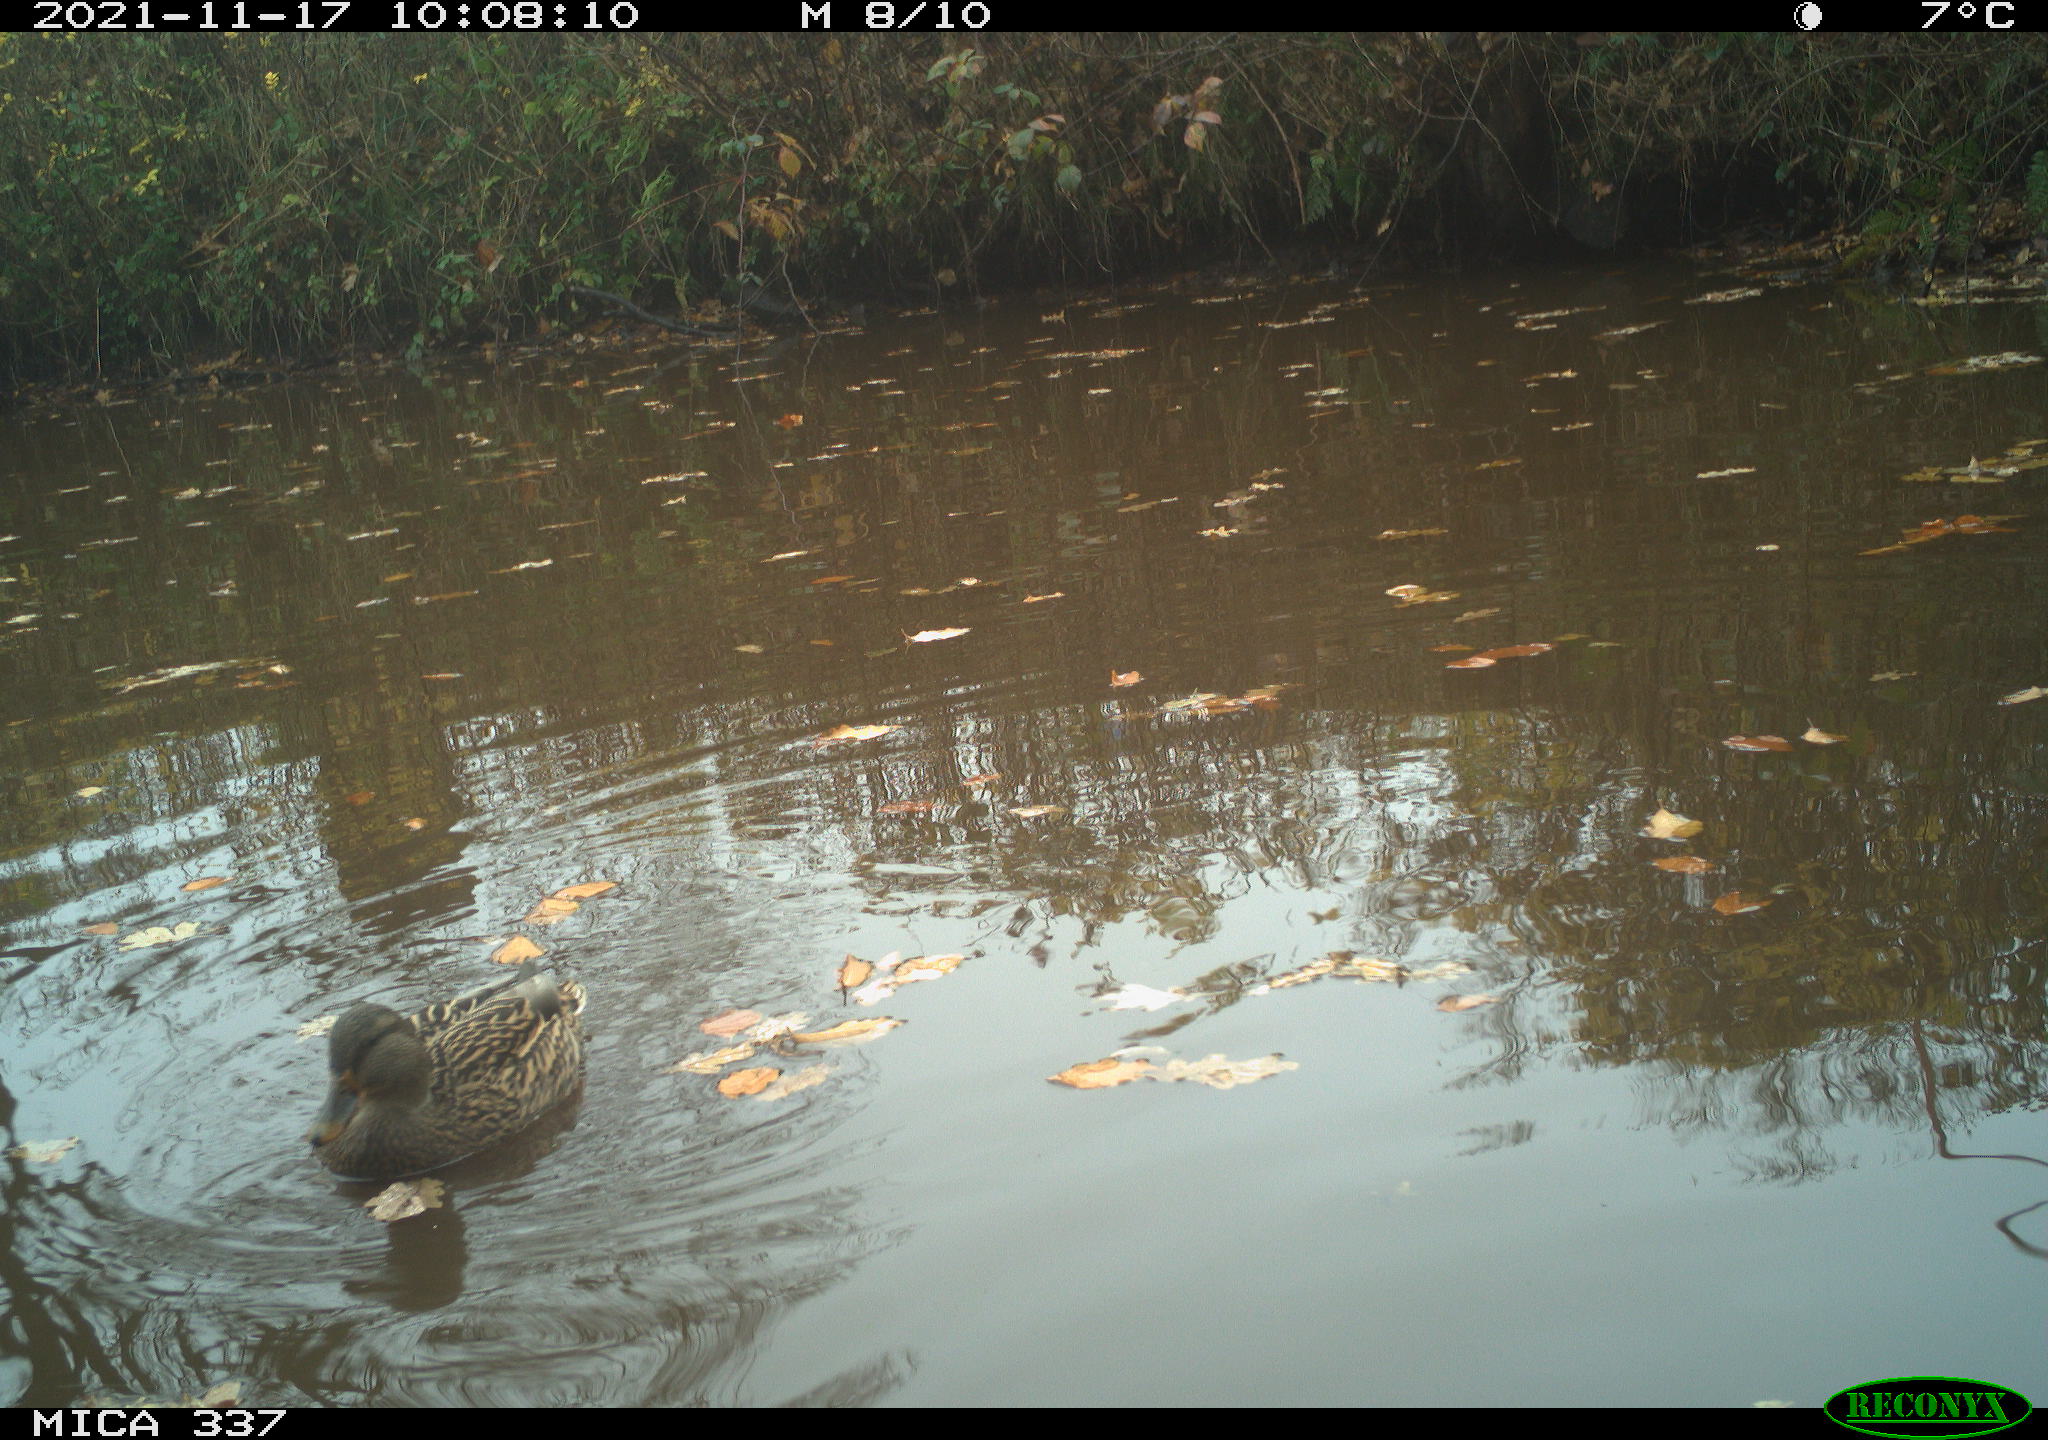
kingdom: Animalia
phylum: Chordata
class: Aves
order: Anseriformes
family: Anatidae
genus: Anas
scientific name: Anas platyrhynchos
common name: Mallard
